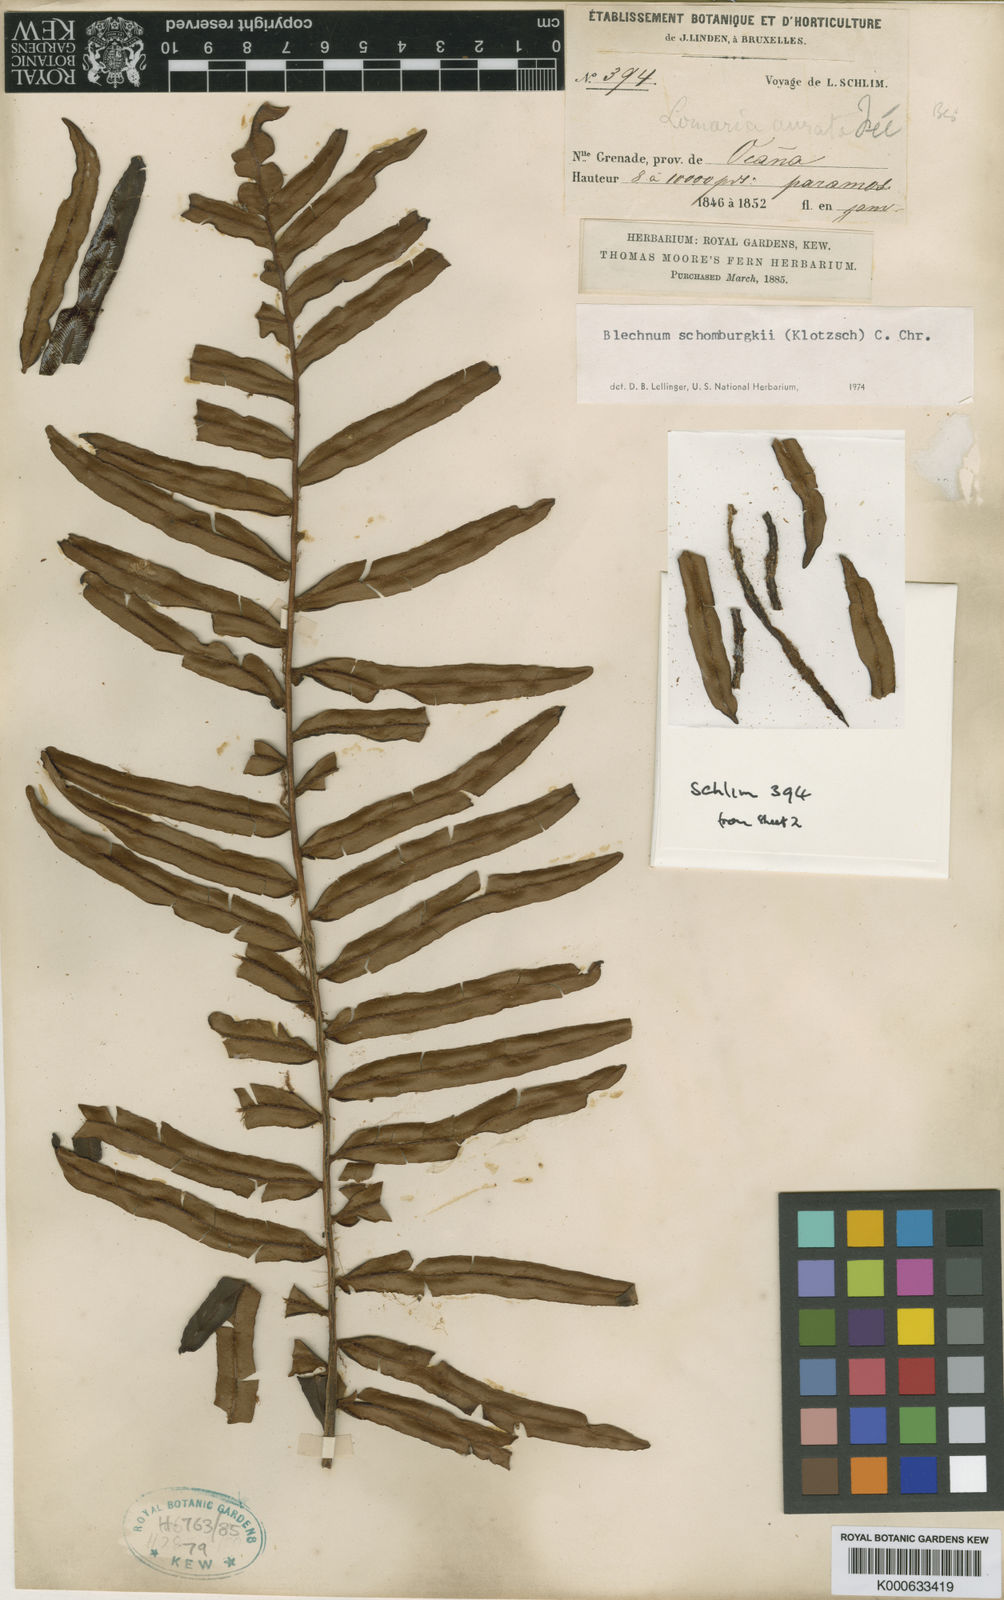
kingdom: Plantae
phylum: Tracheophyta
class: Polypodiopsida
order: Polypodiales
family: Blechnaceae
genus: Blechnum
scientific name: Blechnum
